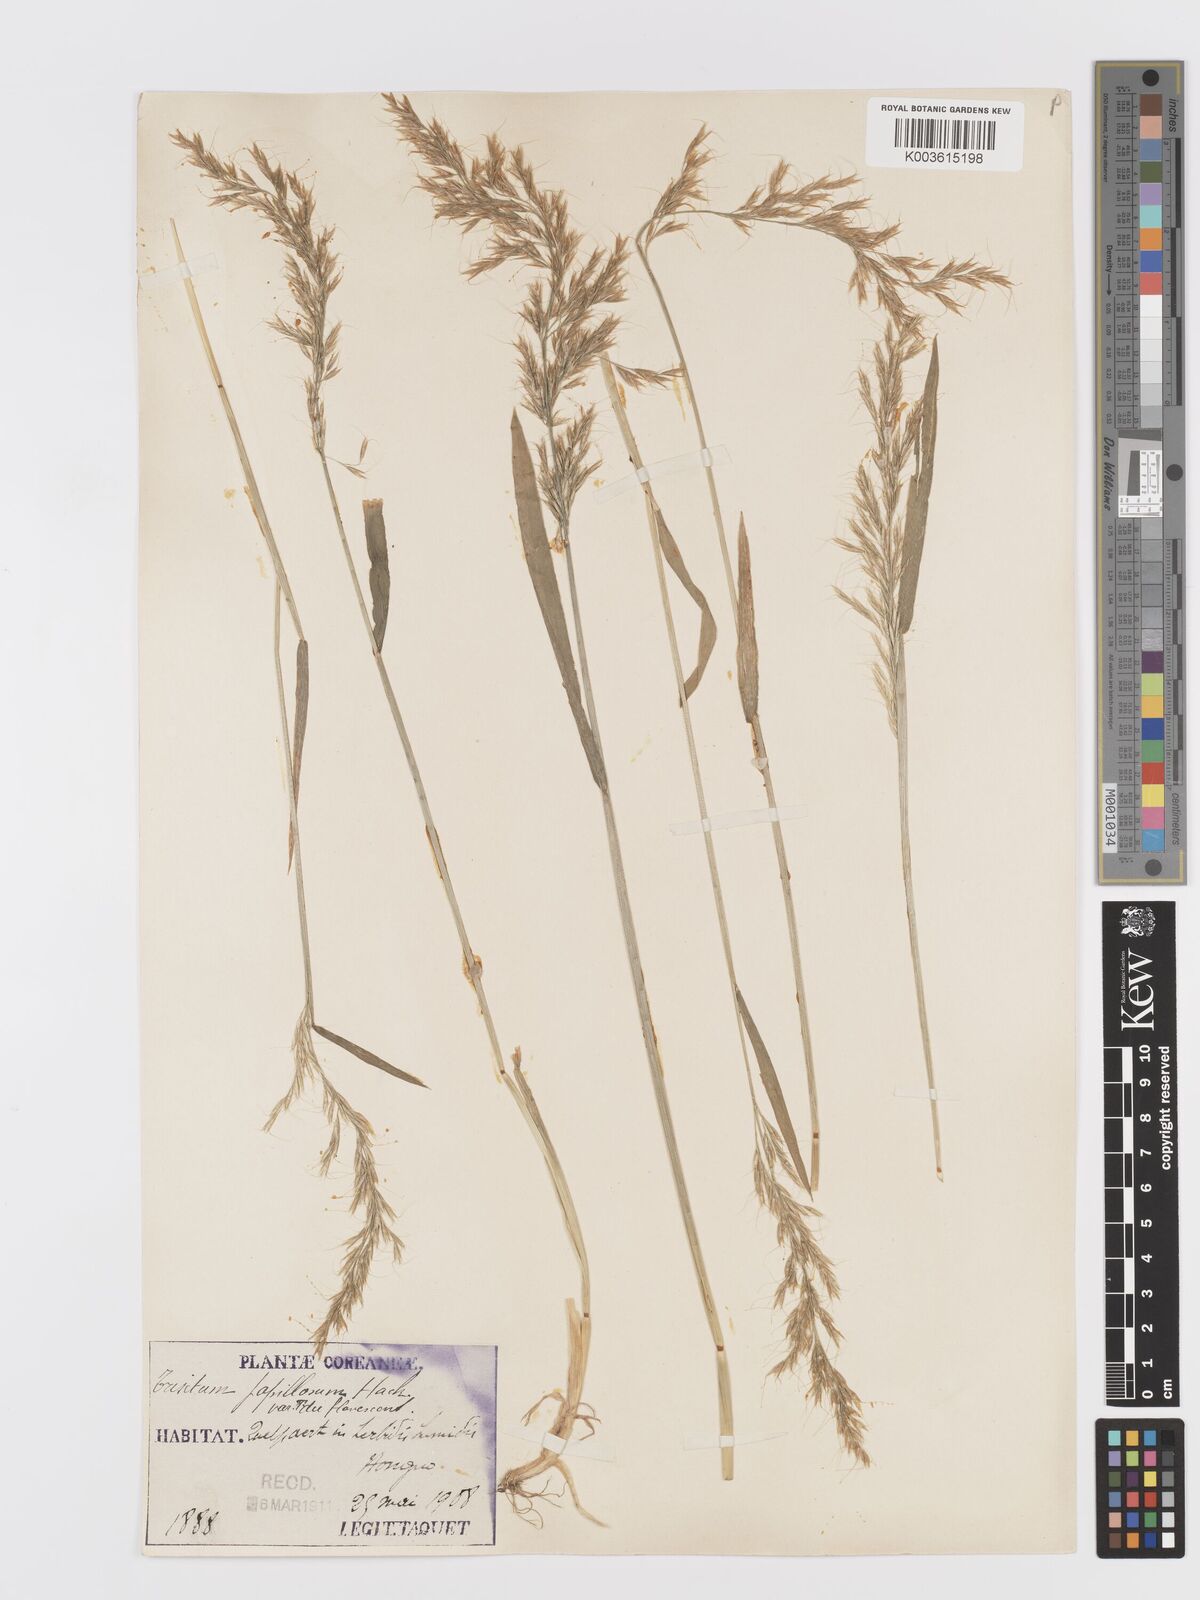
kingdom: Plantae
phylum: Tracheophyta
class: Liliopsida
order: Poales
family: Poaceae
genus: Sibirotrisetum
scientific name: Sibirotrisetum bifidum
